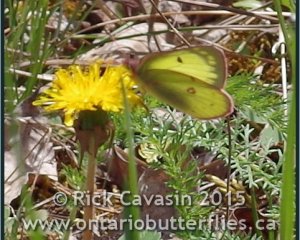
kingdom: Animalia
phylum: Arthropoda
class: Insecta
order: Lepidoptera
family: Pieridae
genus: Colias
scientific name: Colias philodice
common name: Clouded Sulphur
